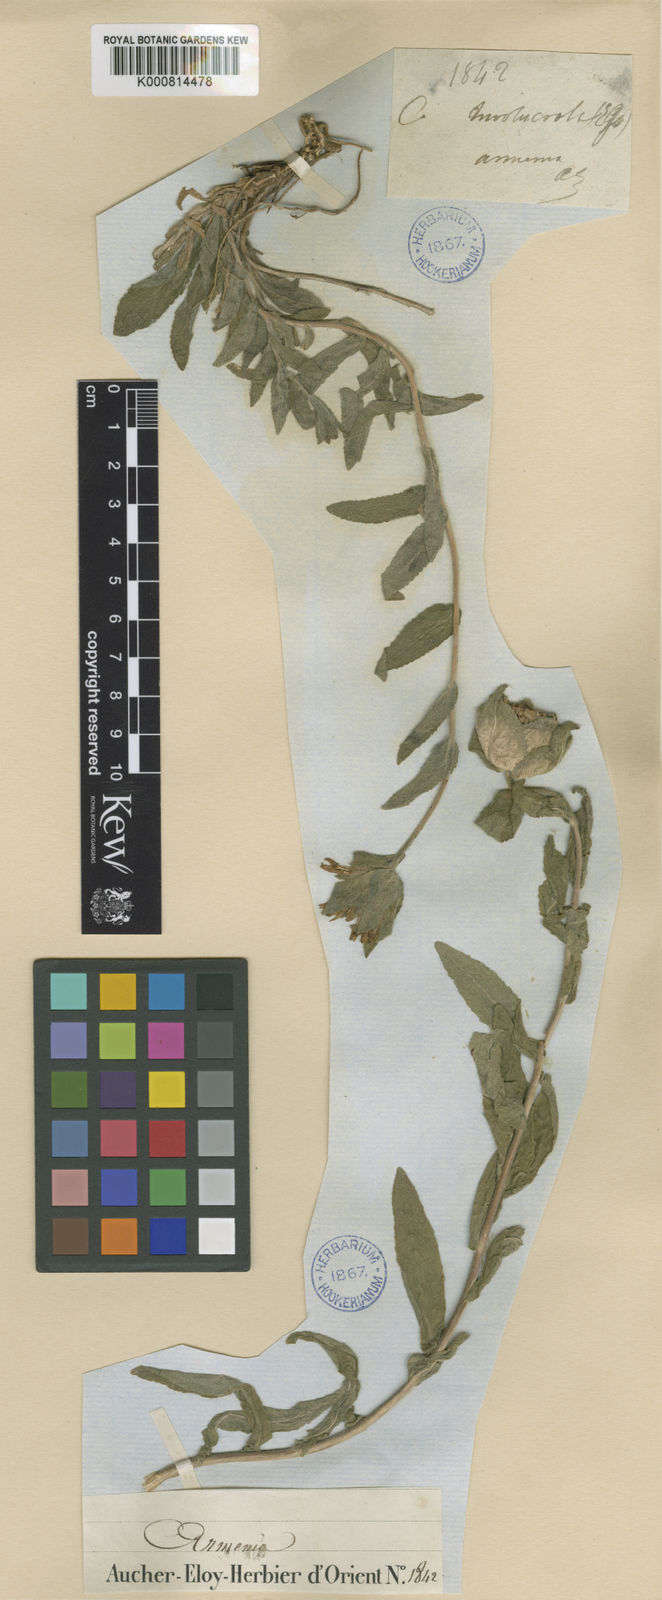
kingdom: Plantae
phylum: Tracheophyta
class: Magnoliopsida
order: Asterales
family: Campanulaceae
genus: Campanula
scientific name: Campanula involucrata
